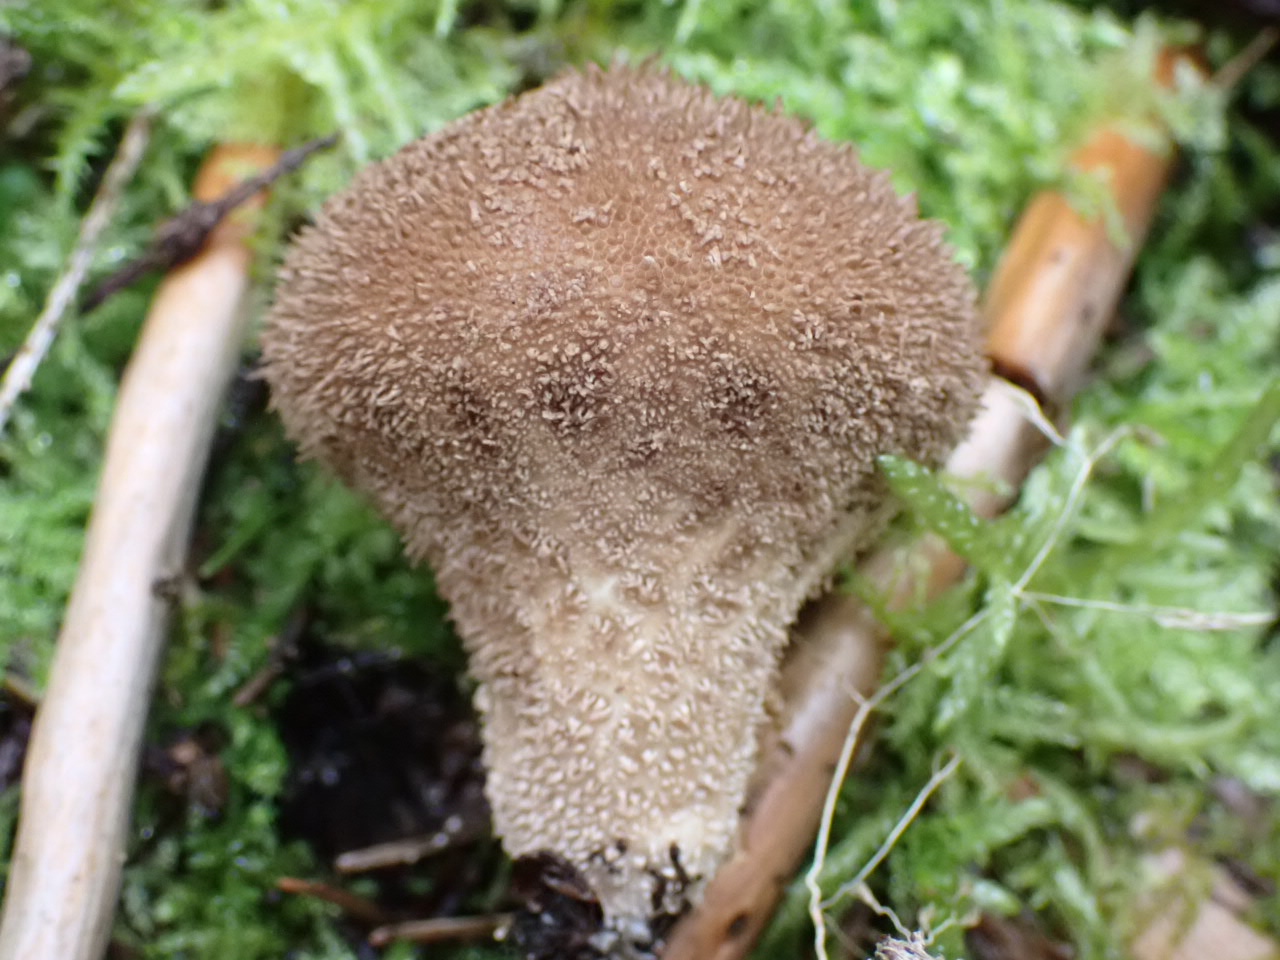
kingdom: Fungi
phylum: Basidiomycota
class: Agaricomycetes
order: Agaricales
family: Lycoperdaceae
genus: Lycoperdon
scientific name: Lycoperdon nigrescens
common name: sortagtig støvbold
